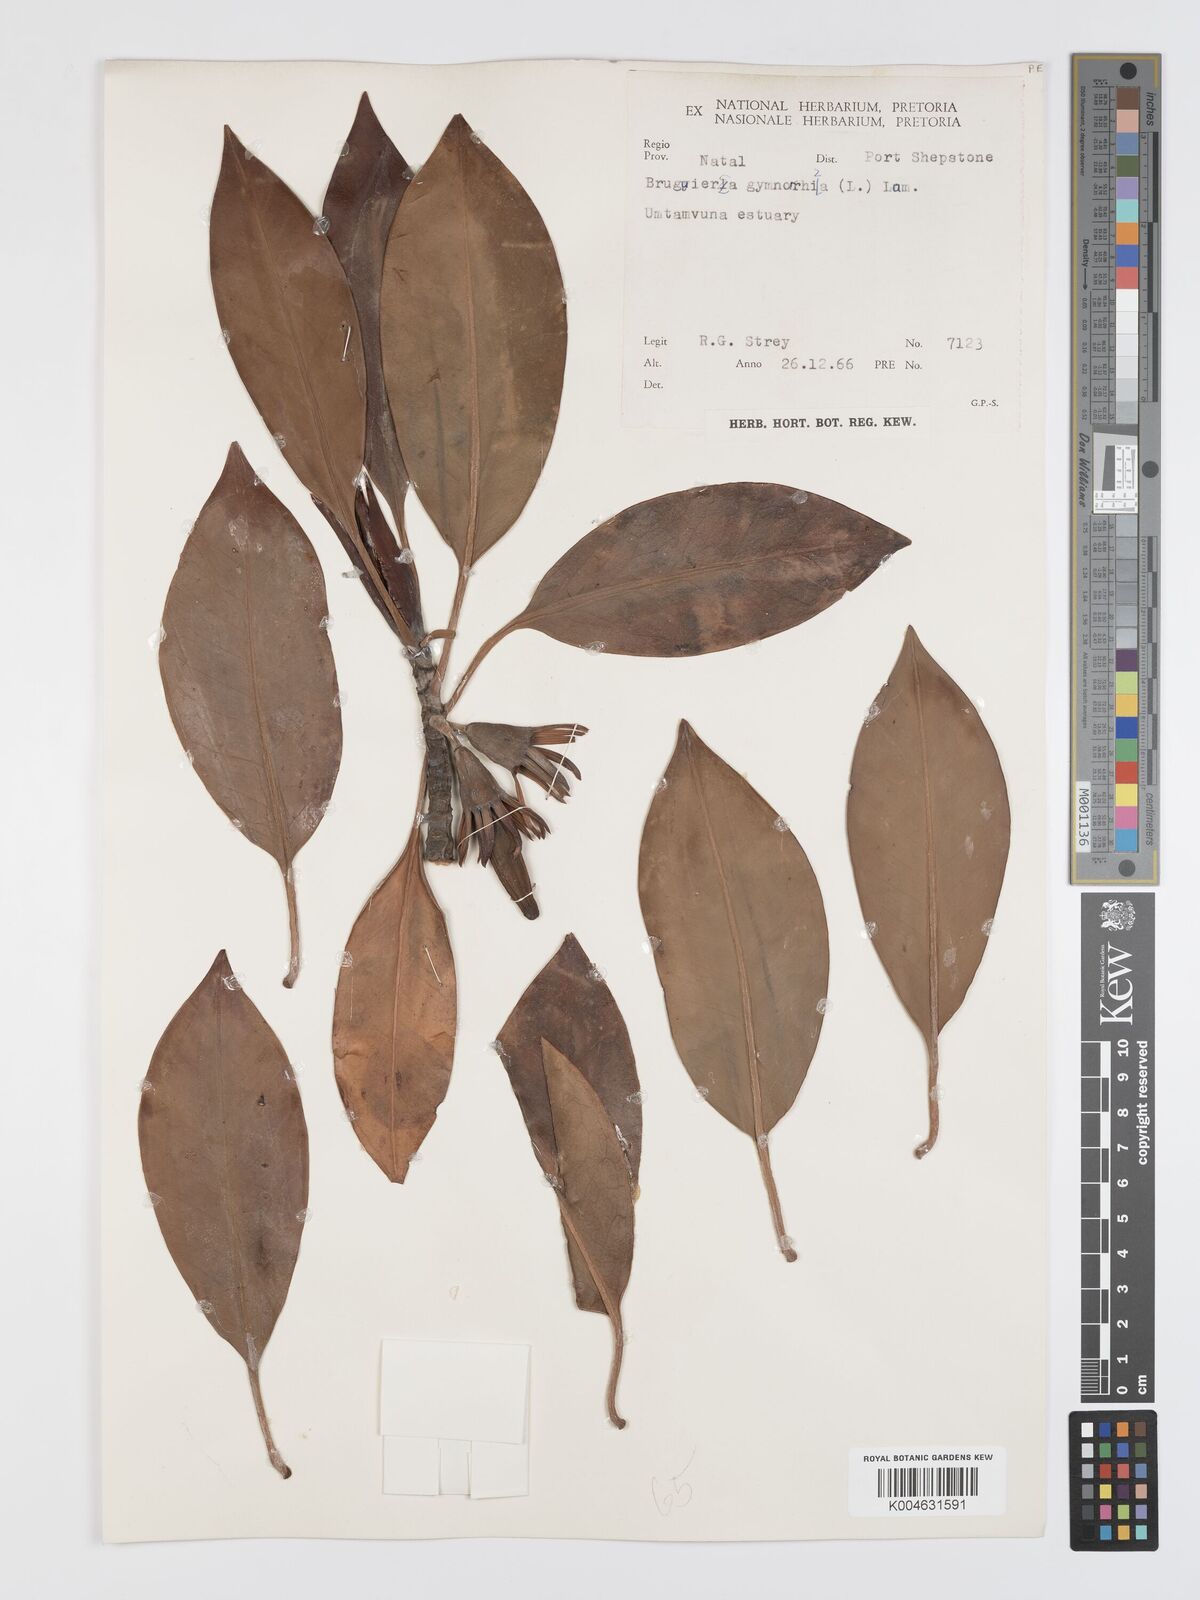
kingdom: Plantae
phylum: Tracheophyta
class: Magnoliopsida
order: Malpighiales
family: Rhizophoraceae
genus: Bruguiera
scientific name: Bruguiera gymnorhiza
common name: Oriental mangrove
